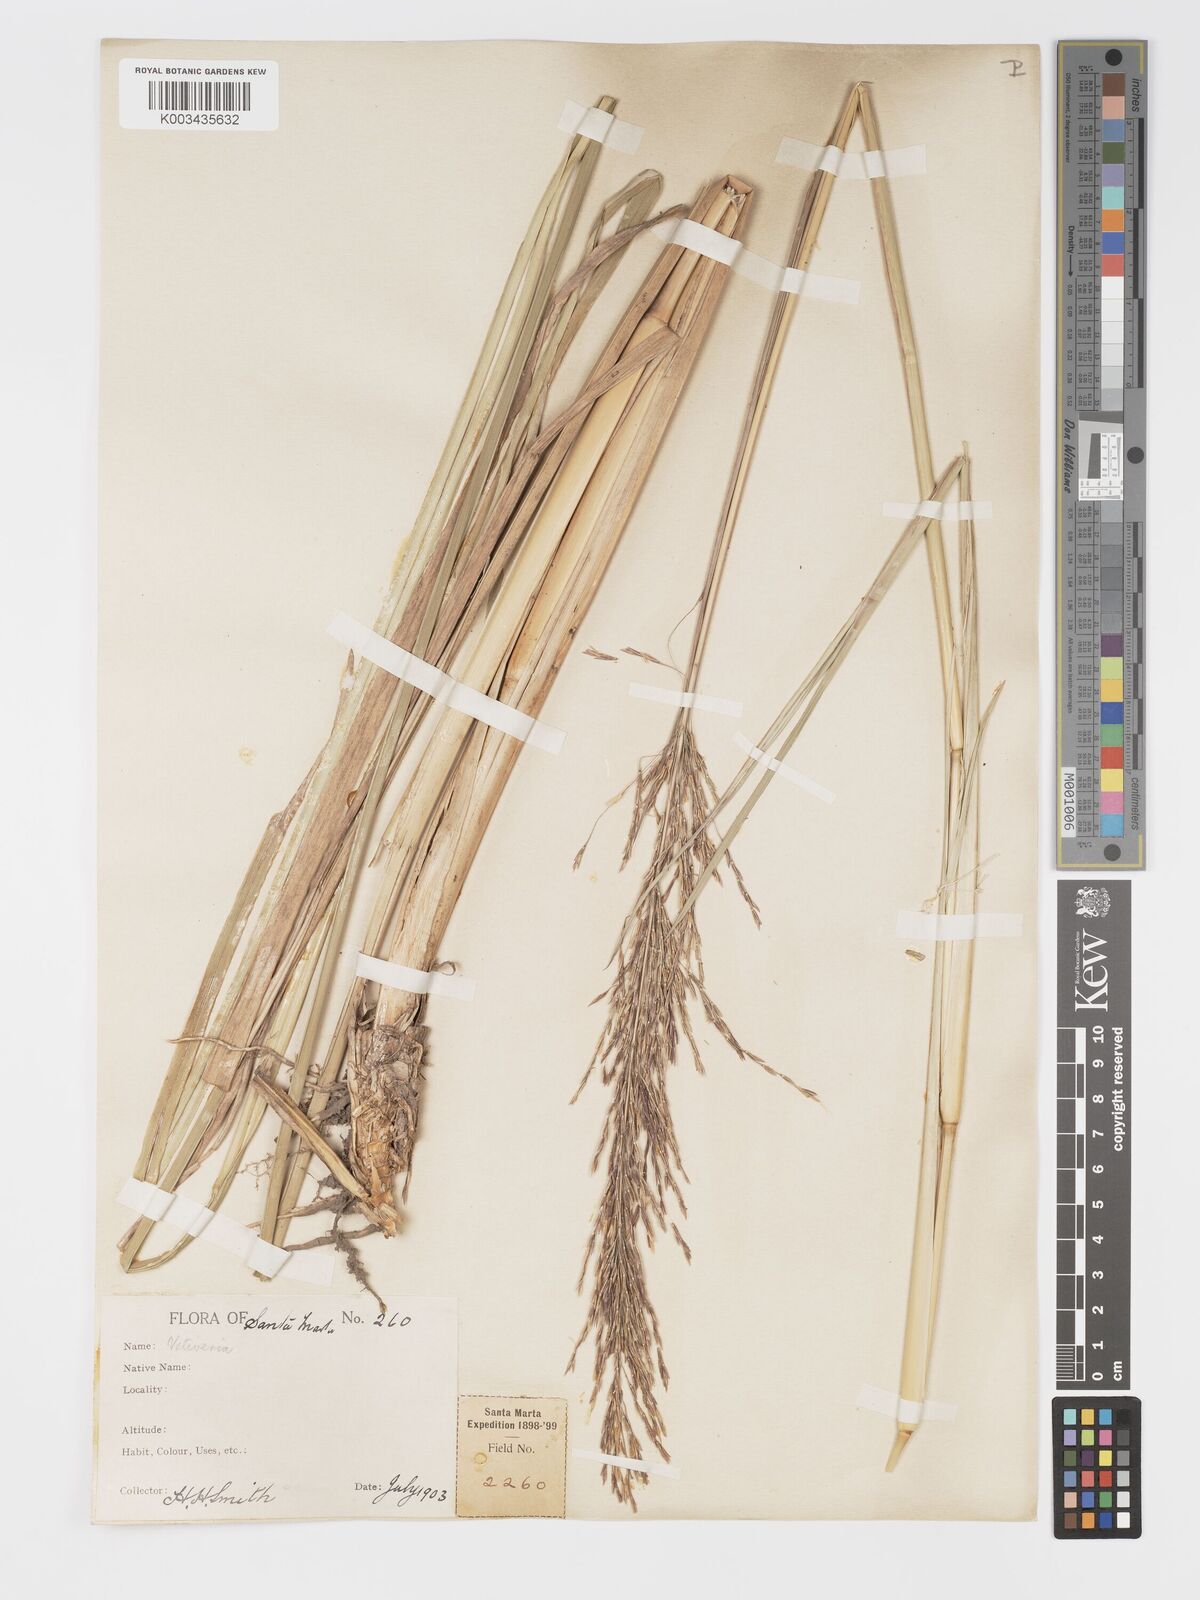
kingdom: Plantae
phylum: Tracheophyta
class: Liliopsida
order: Poales
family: Poaceae
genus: Chrysopogon
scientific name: Chrysopogon zizanioides
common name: False beardgrass
